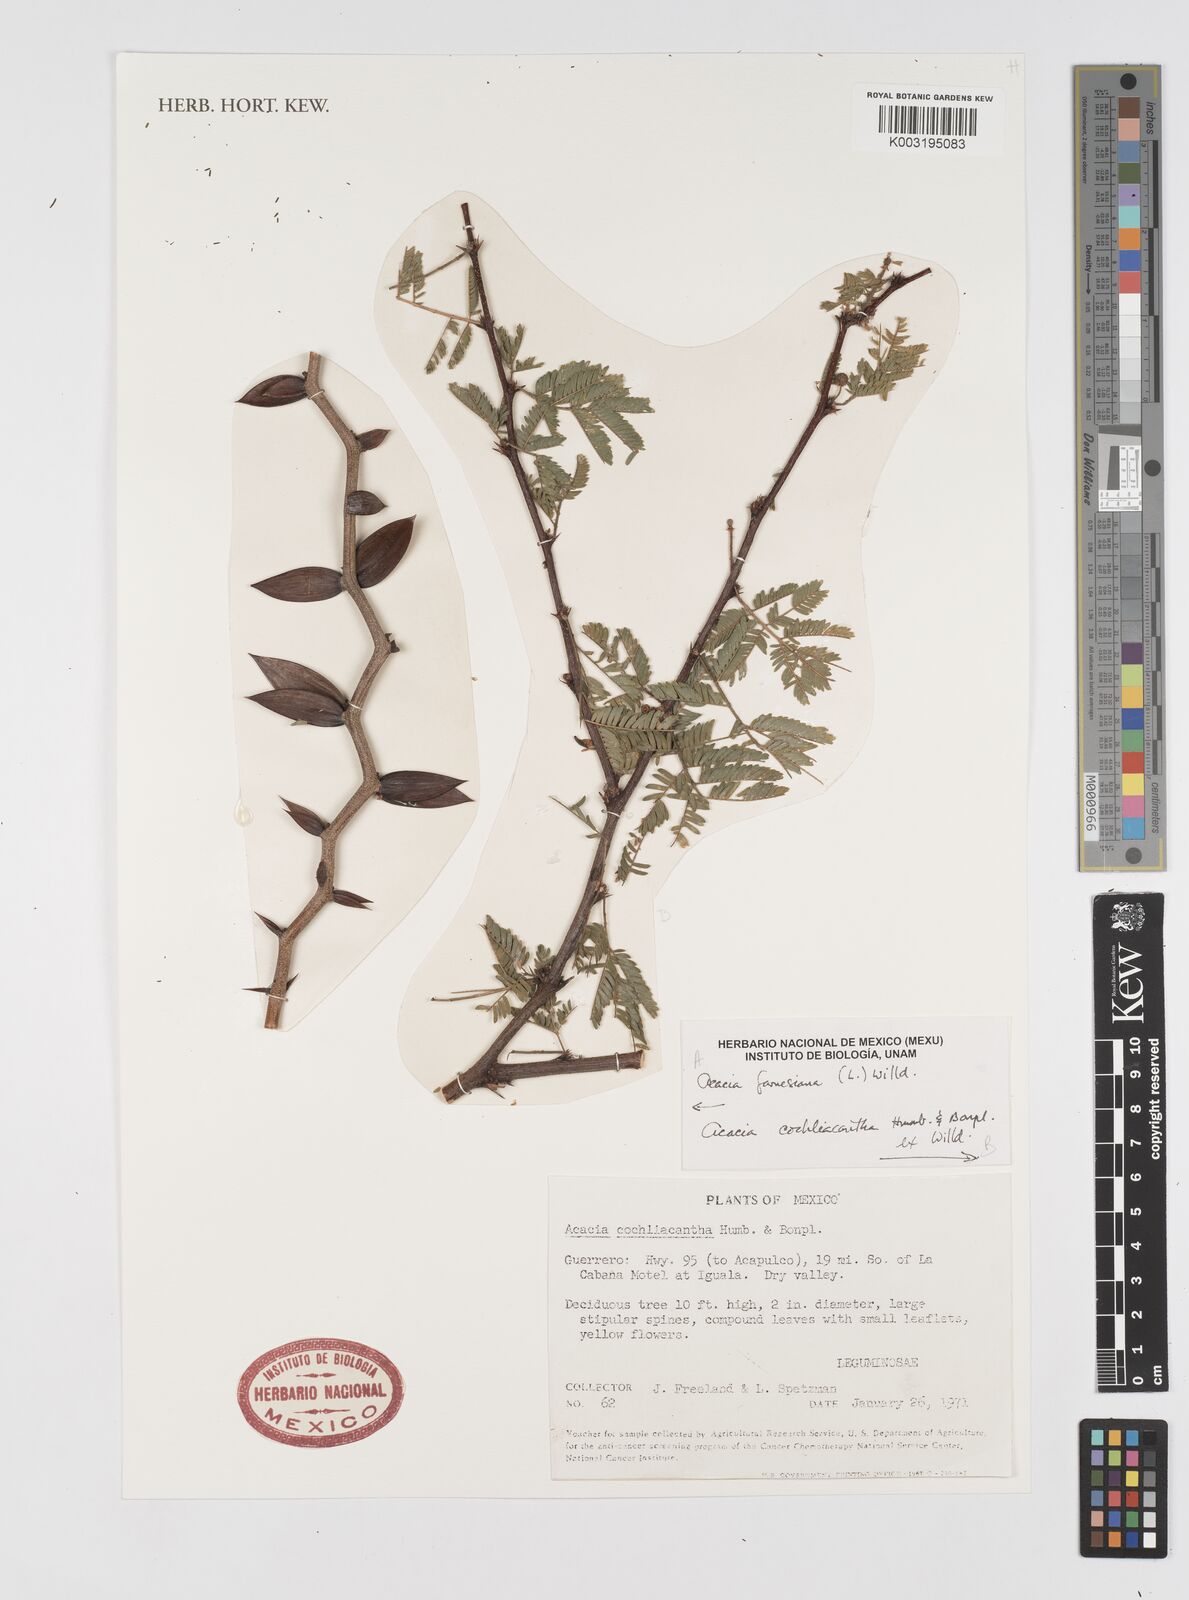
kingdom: Plantae
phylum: Tracheophyta
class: Magnoliopsida
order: Fabales
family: Fabaceae
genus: Vachellia
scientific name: Vachellia campeachiana
